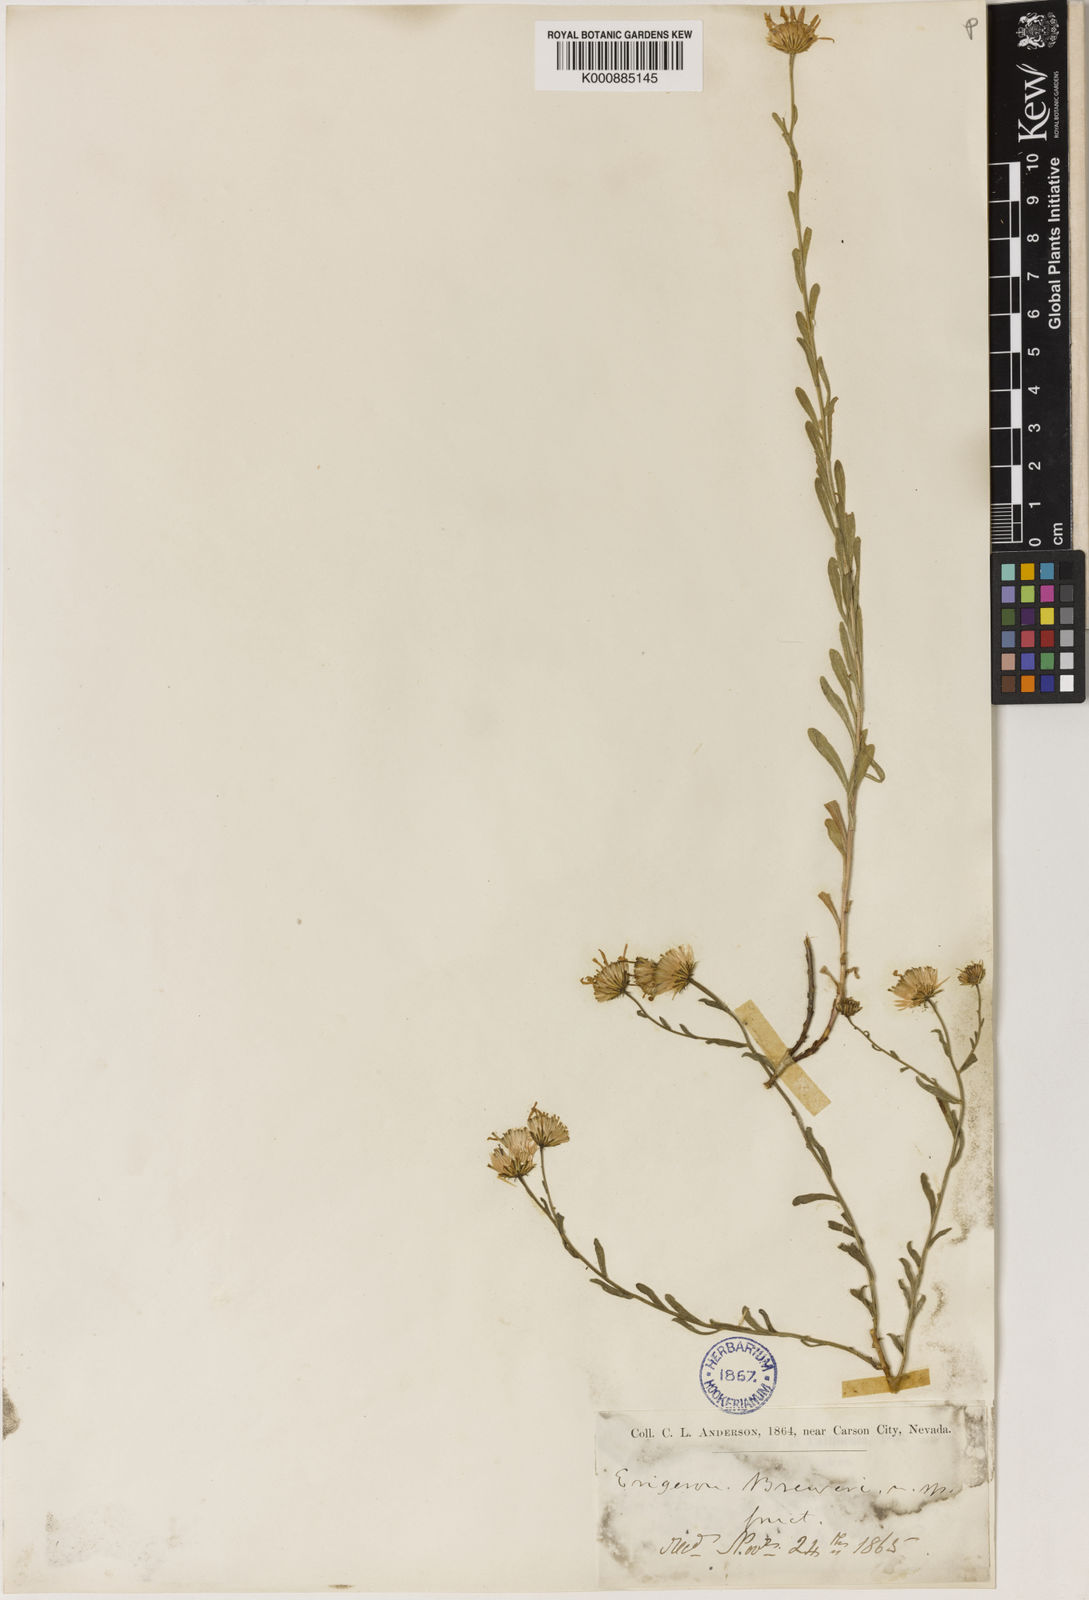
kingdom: Plantae
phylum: Tracheophyta
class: Magnoliopsida
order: Asterales
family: Asteraceae
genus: Erigeron
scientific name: Erigeron
